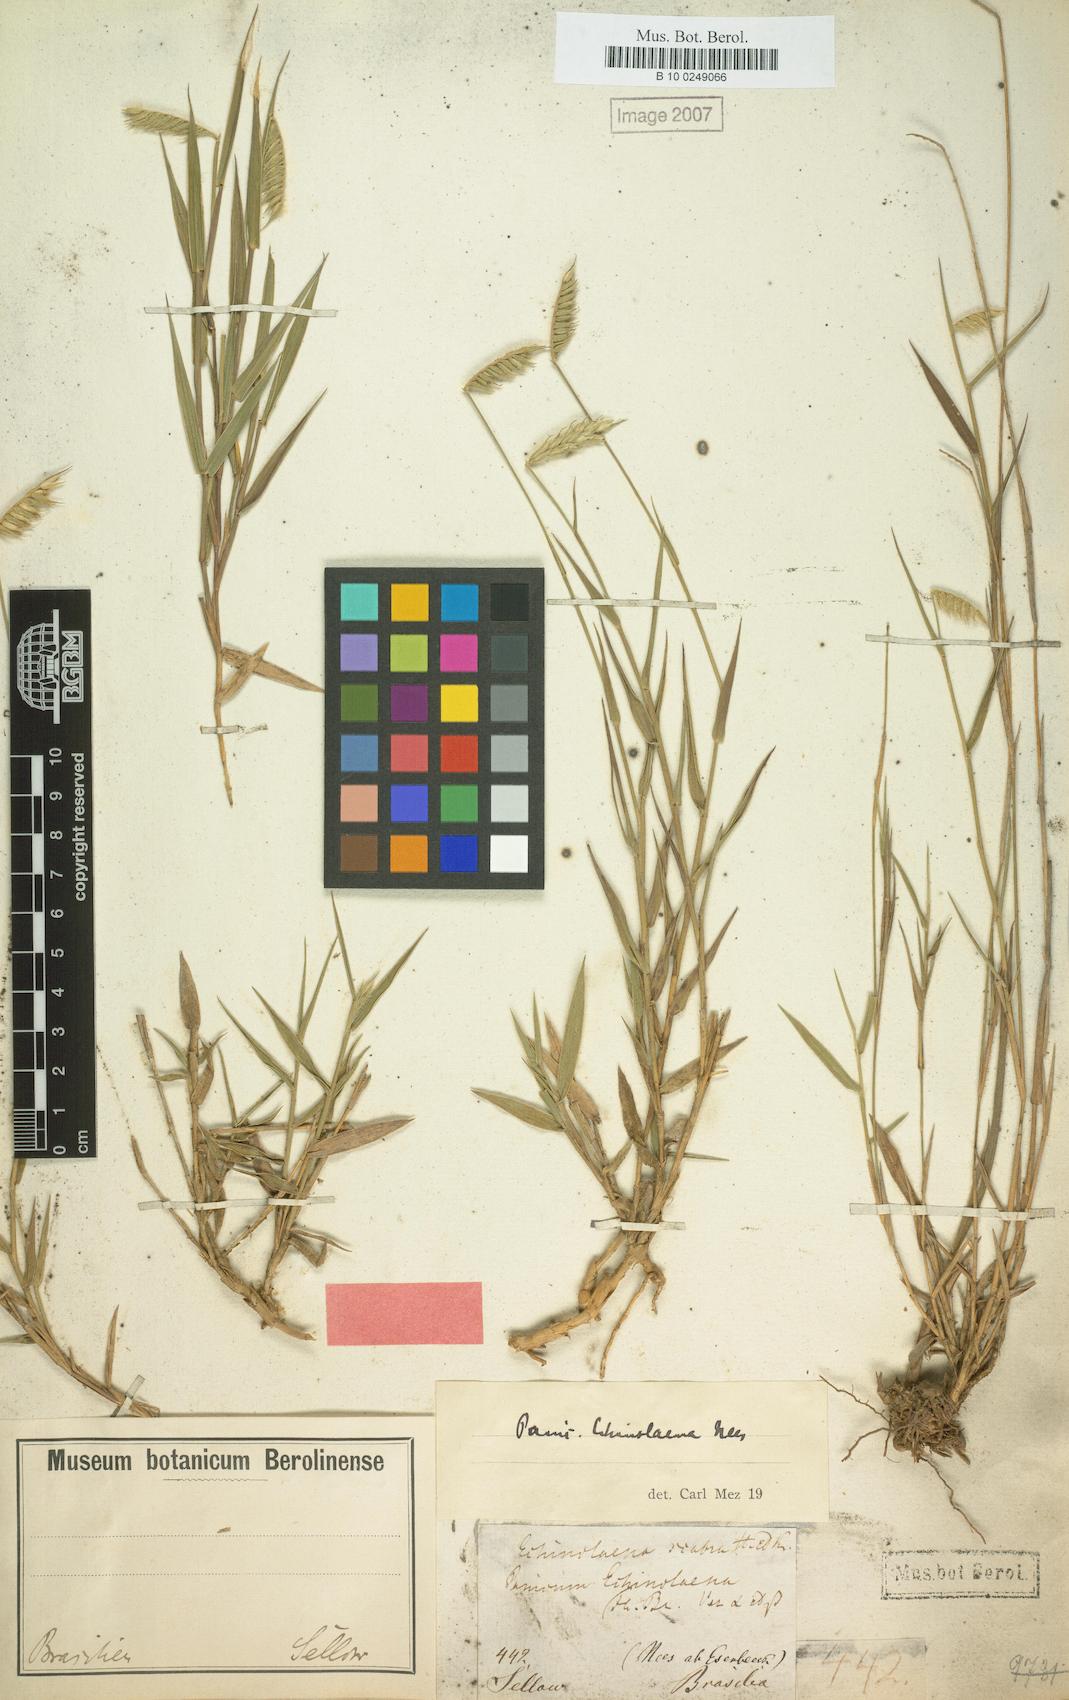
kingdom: Plantae
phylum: Tracheophyta
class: Liliopsida
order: Poales
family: Poaceae
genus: Echinolaena
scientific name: Echinolaena inflexa
